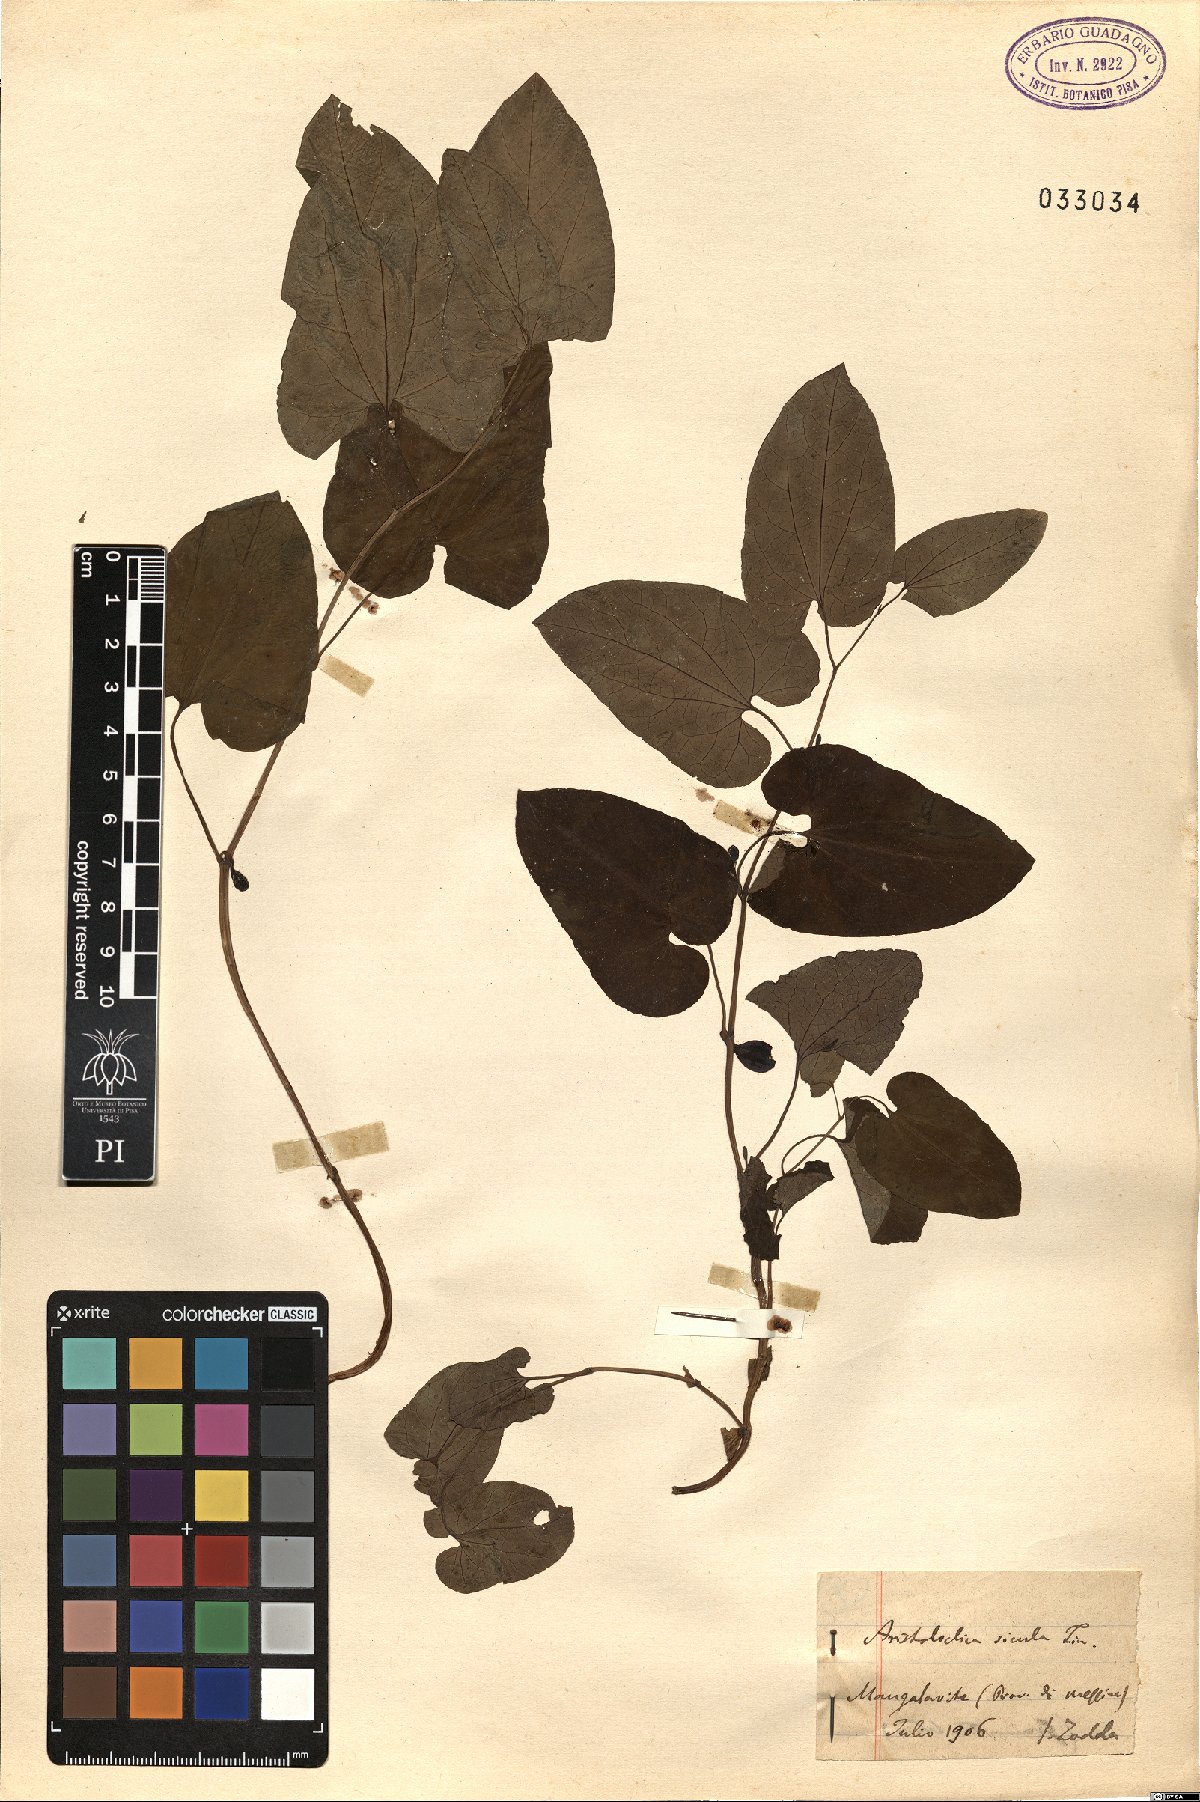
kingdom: Plantae
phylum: Tracheophyta
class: Magnoliopsida
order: Piperales
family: Aristolochiaceae
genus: Aristolochia
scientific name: Aristolochia sicula
